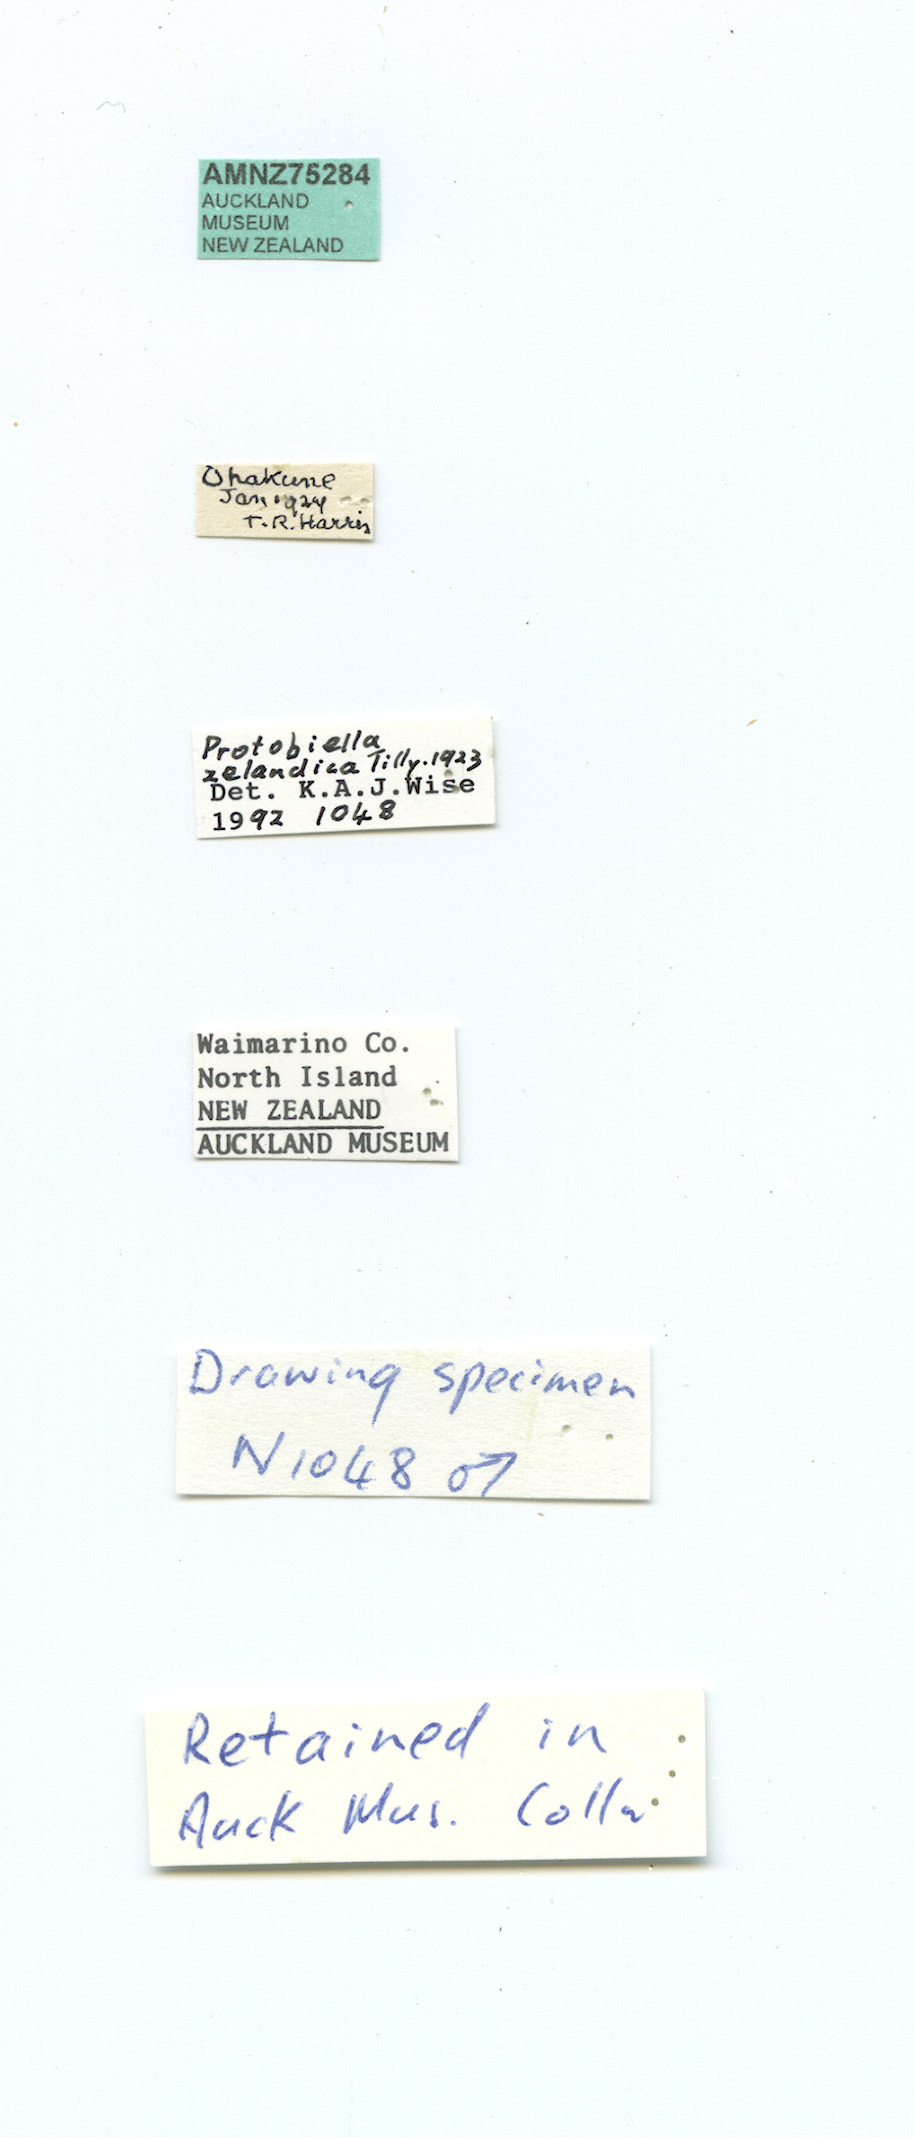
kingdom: Animalia
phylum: Arthropoda
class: Insecta
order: Neuroptera
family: Berothidae
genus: Protobiella
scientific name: Protobiella zelandica
